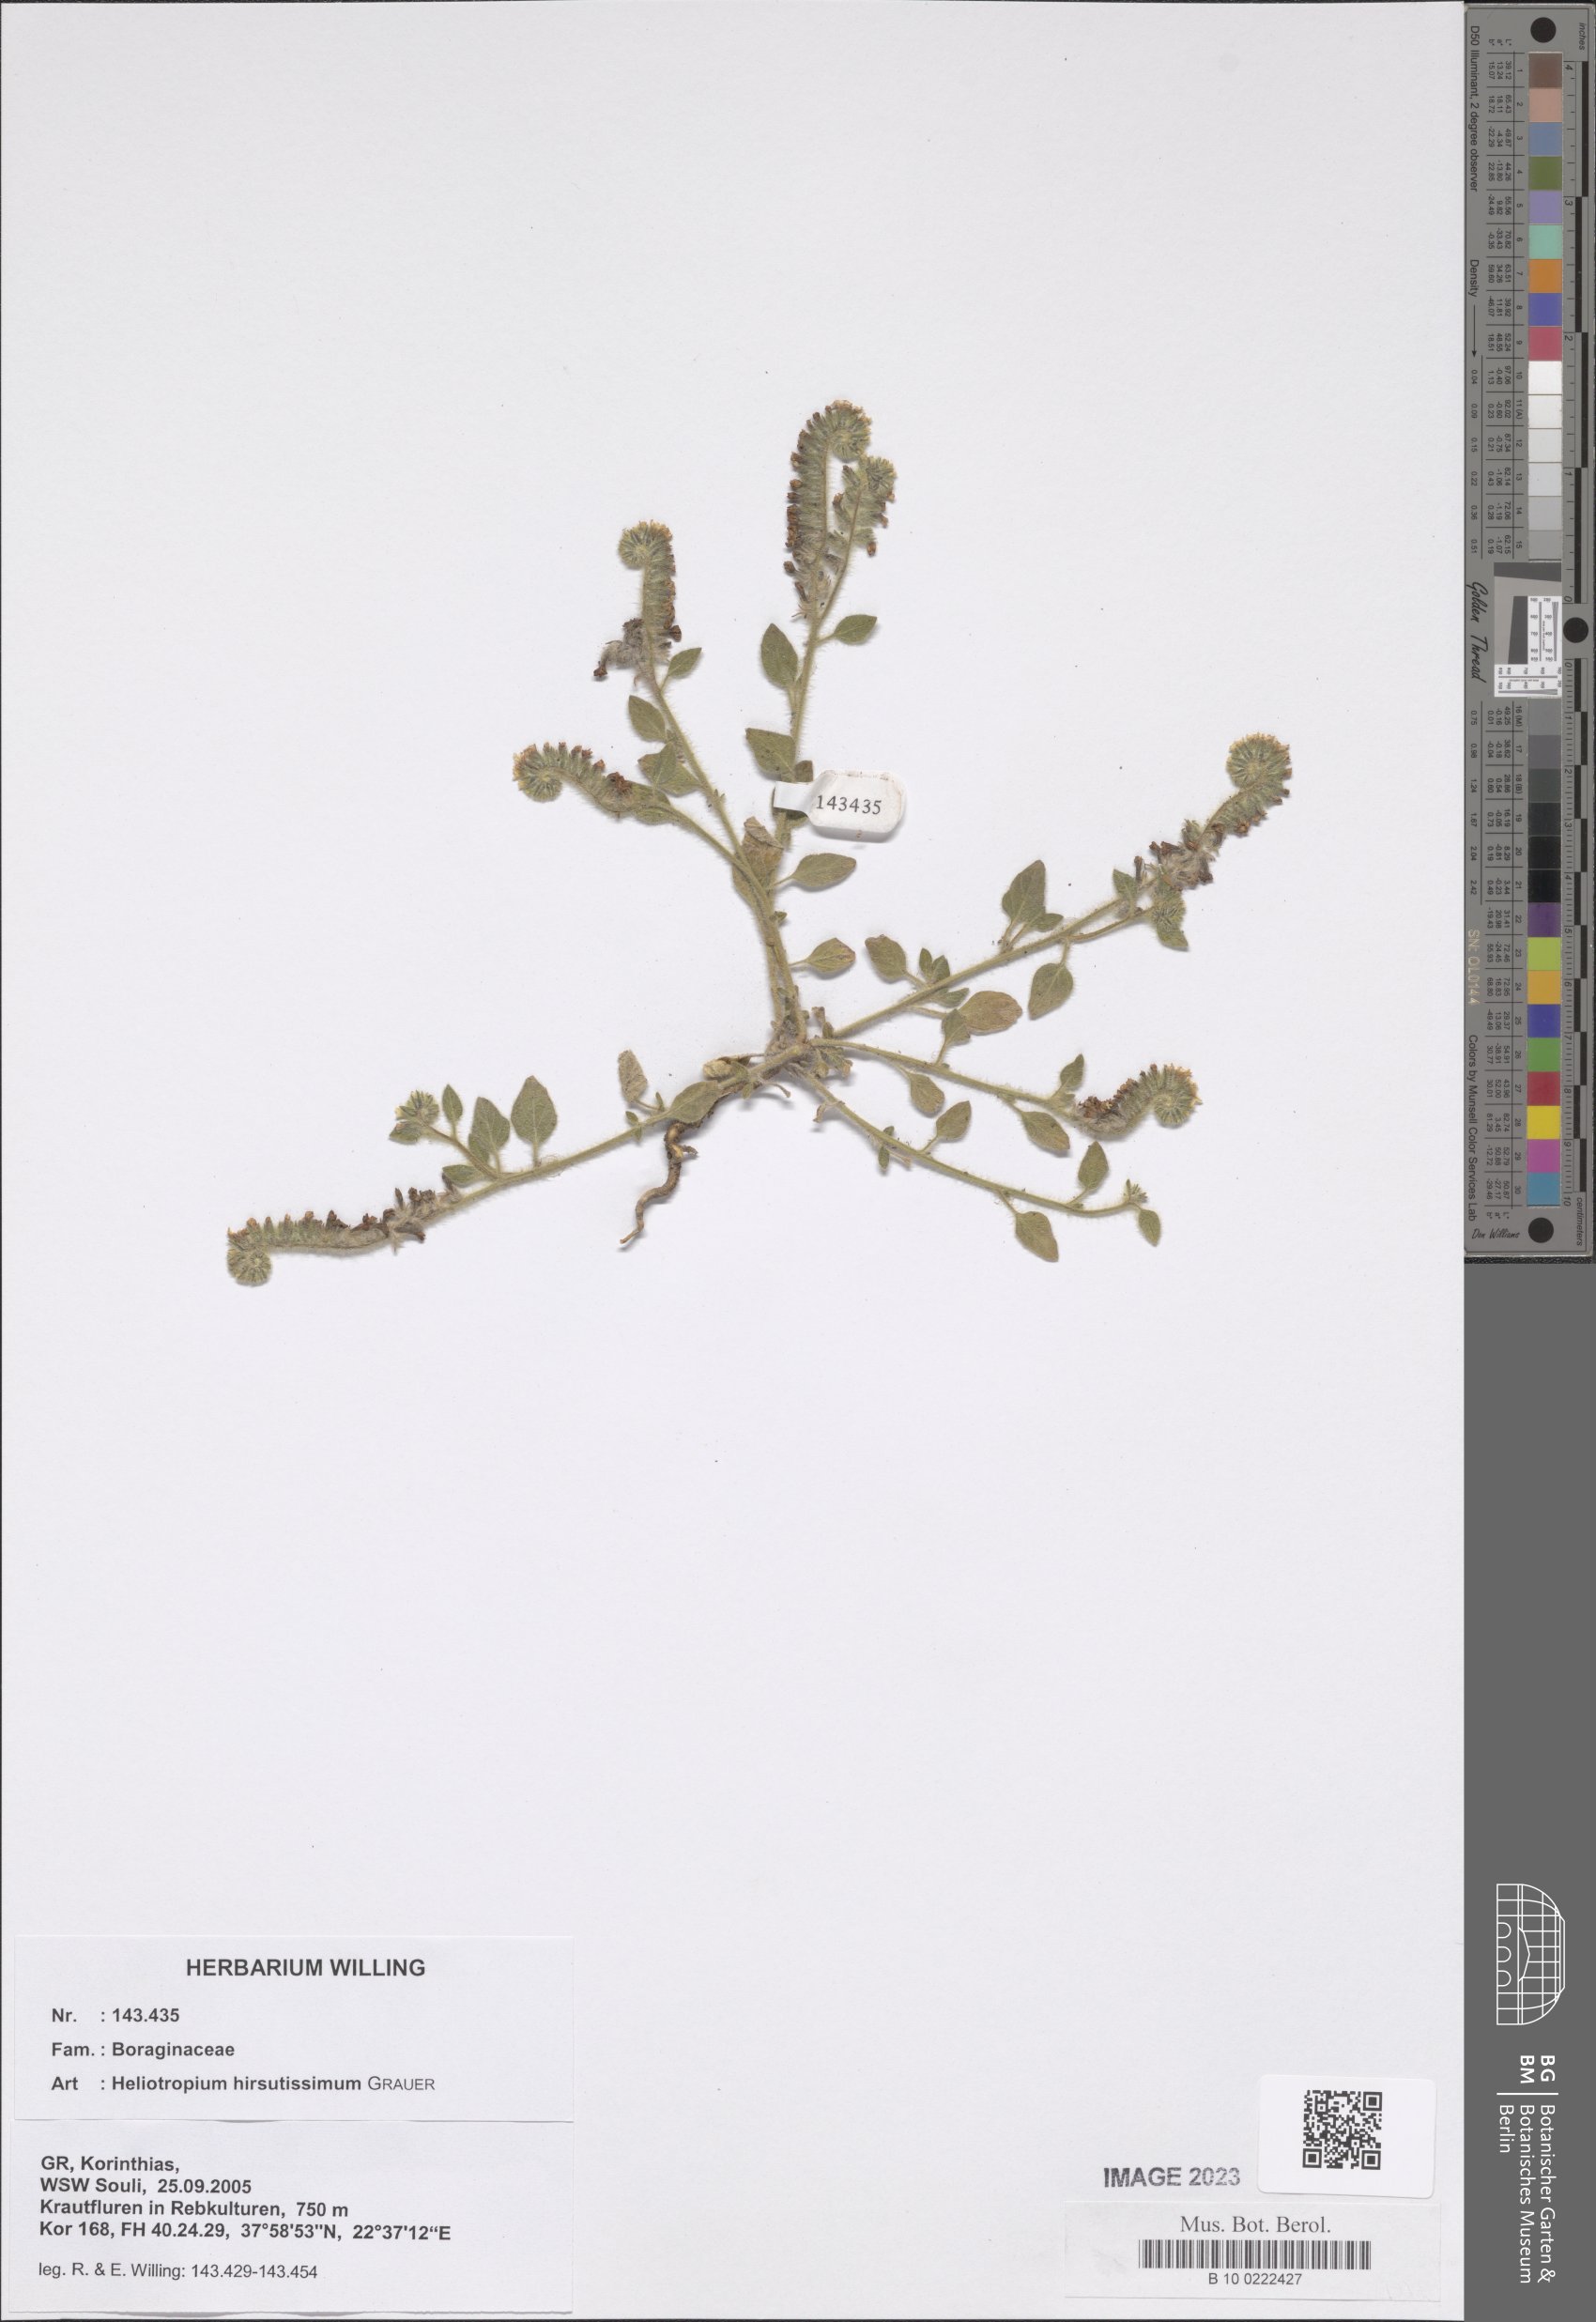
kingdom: Plantae
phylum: Tracheophyta
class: Magnoliopsida
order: Boraginales
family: Heliotropiaceae
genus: Heliotropium
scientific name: Heliotropium hirsutissimum
